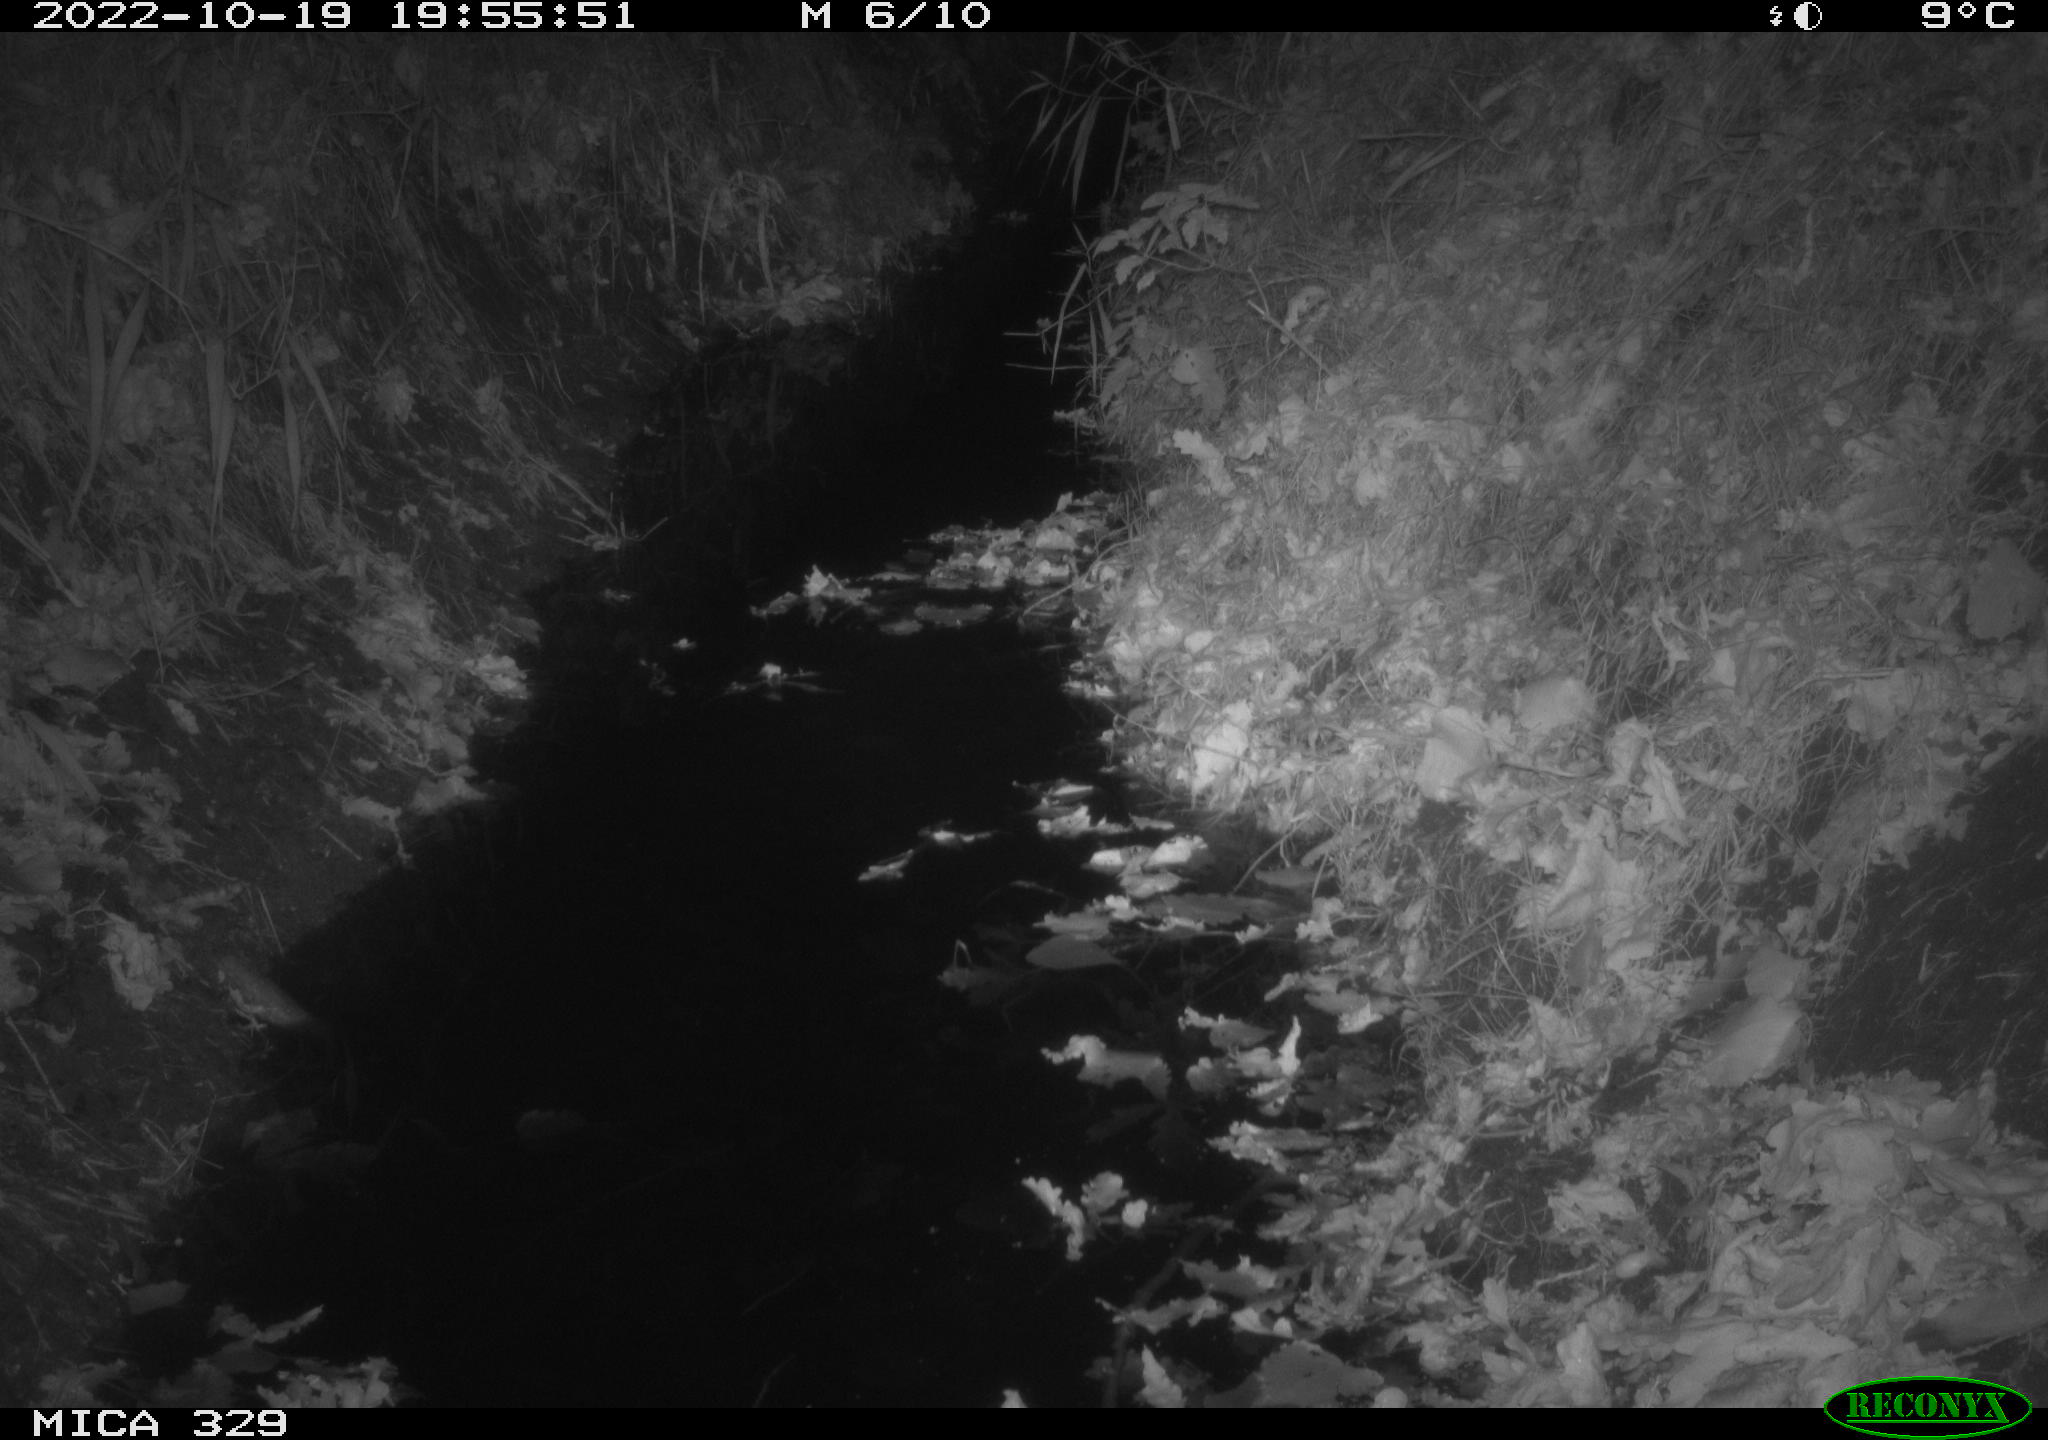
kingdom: Animalia
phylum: Chordata
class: Mammalia
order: Rodentia
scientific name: Rodentia
